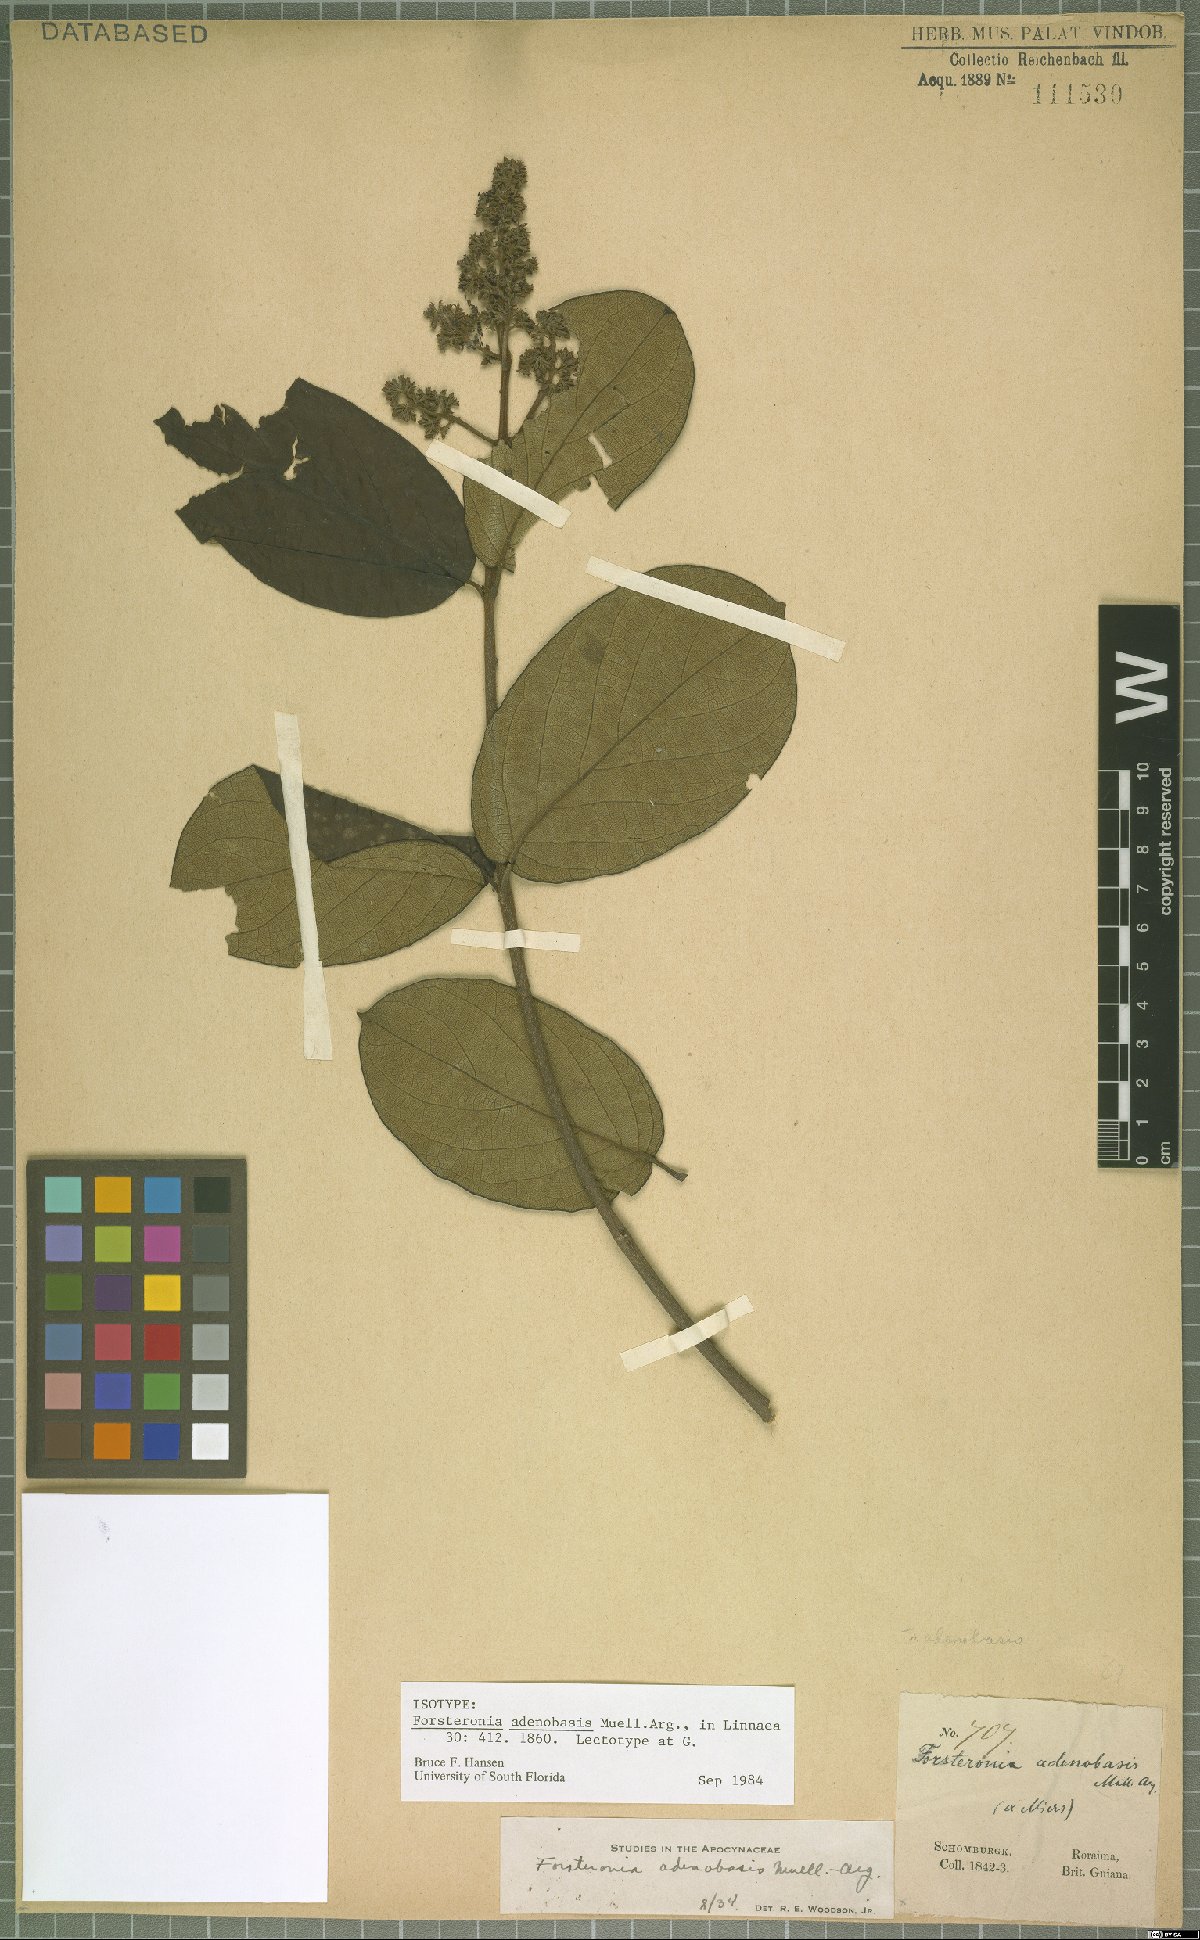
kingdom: Plantae
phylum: Tracheophyta
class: Magnoliopsida
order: Gentianales
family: Apocynaceae
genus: Forsteronia
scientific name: Forsteronia adenobasis
